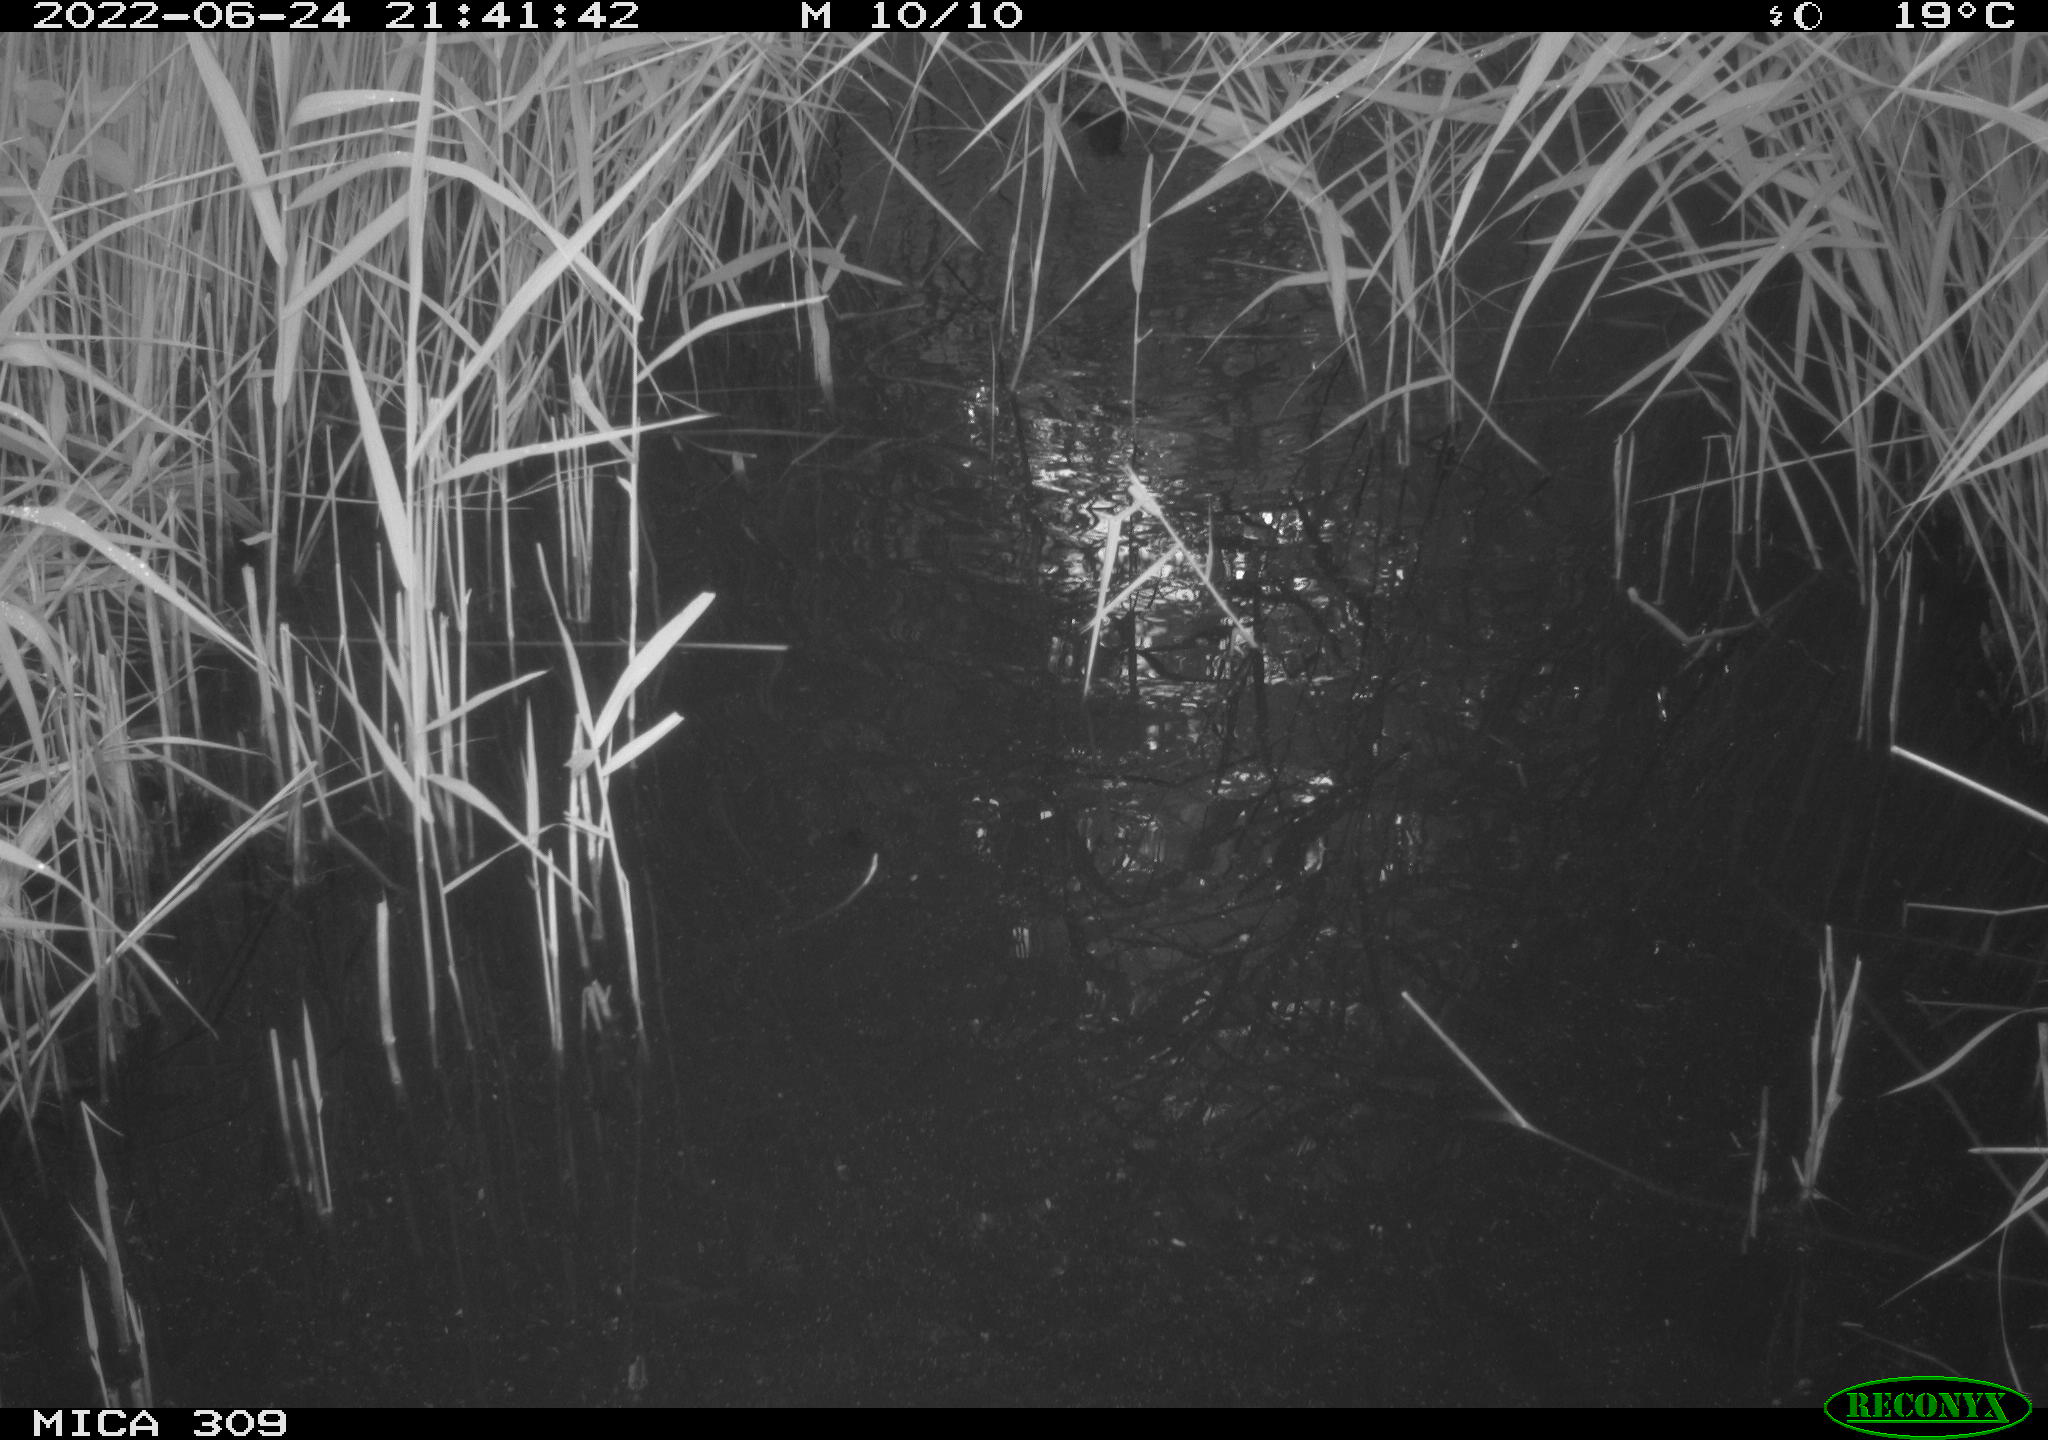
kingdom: Animalia
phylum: Chordata
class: Aves
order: Anseriformes
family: Anatidae
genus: Anas
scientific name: Anas platyrhynchos
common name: Mallard
